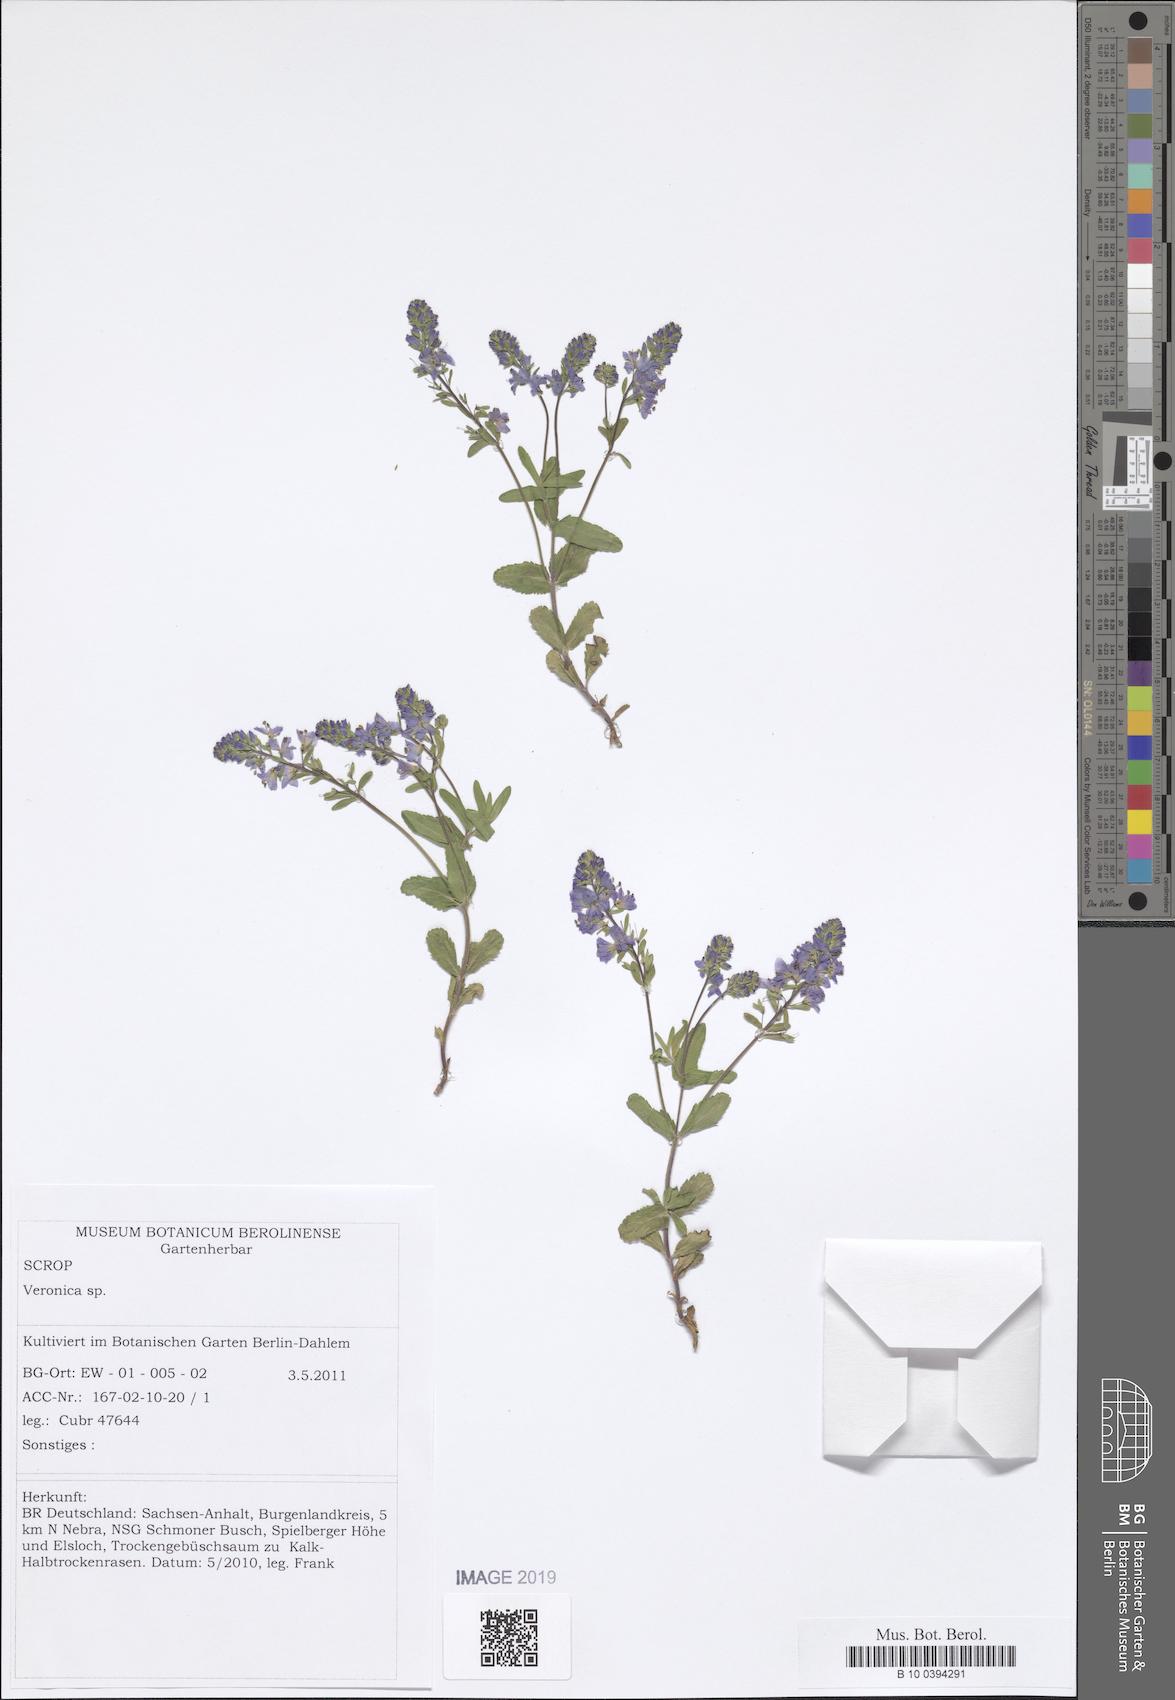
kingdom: Plantae
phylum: Tracheophyta
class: Magnoliopsida
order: Lamiales
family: Plantaginaceae
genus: Veronica
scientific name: Veronica prostrata
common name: Prostrate speedwell
